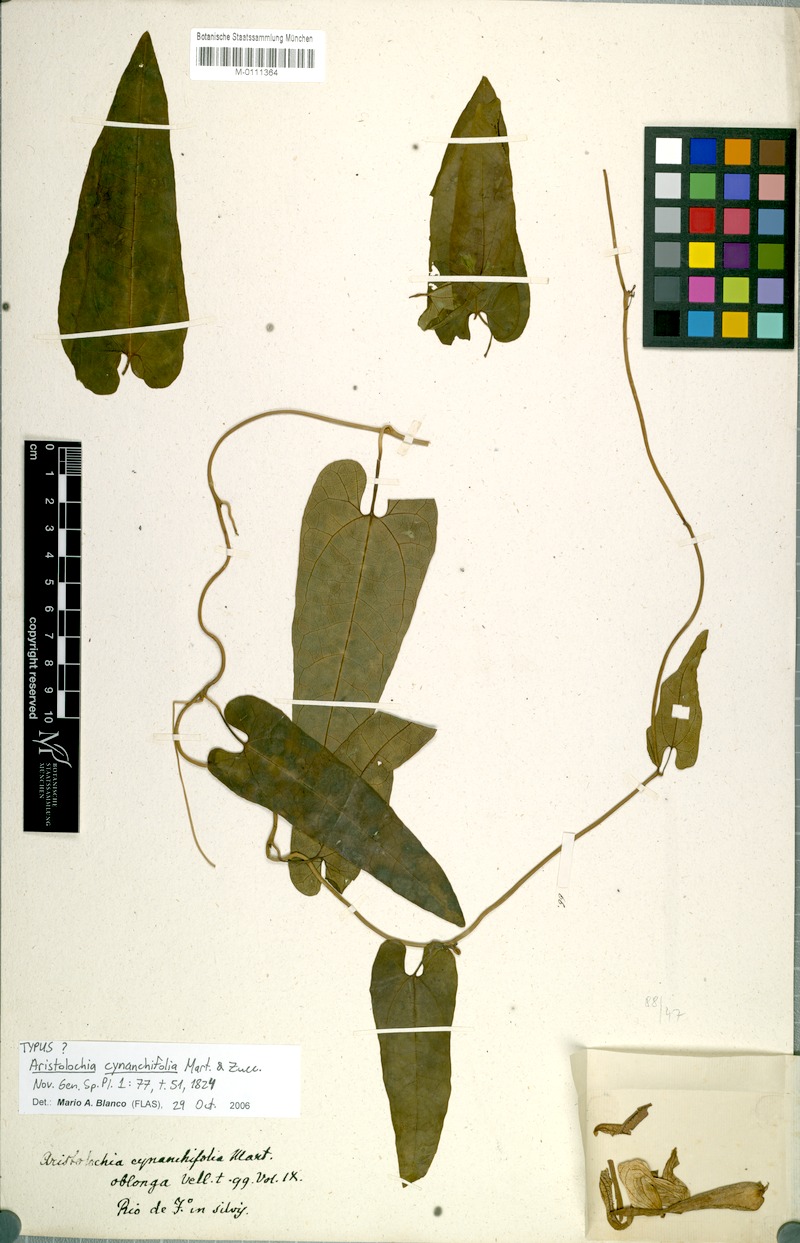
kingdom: Plantae
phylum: Tracheophyta
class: Magnoliopsida
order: Piperales
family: Aristolochiaceae
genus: Aristolochia
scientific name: Aristolochia cynanchifolia
